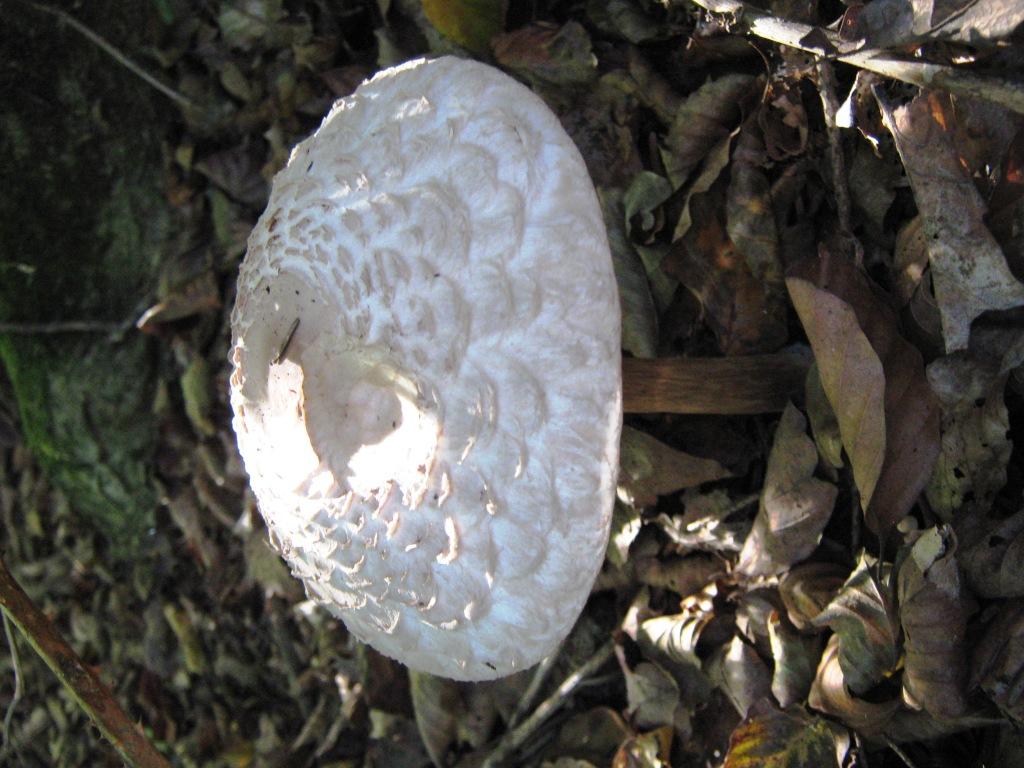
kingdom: Fungi
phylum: Basidiomycota
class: Agaricomycetes
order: Agaricales
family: Agaricaceae
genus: Chlorophyllum
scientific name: Chlorophyllum rhacodes
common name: ægte rabarberhat
